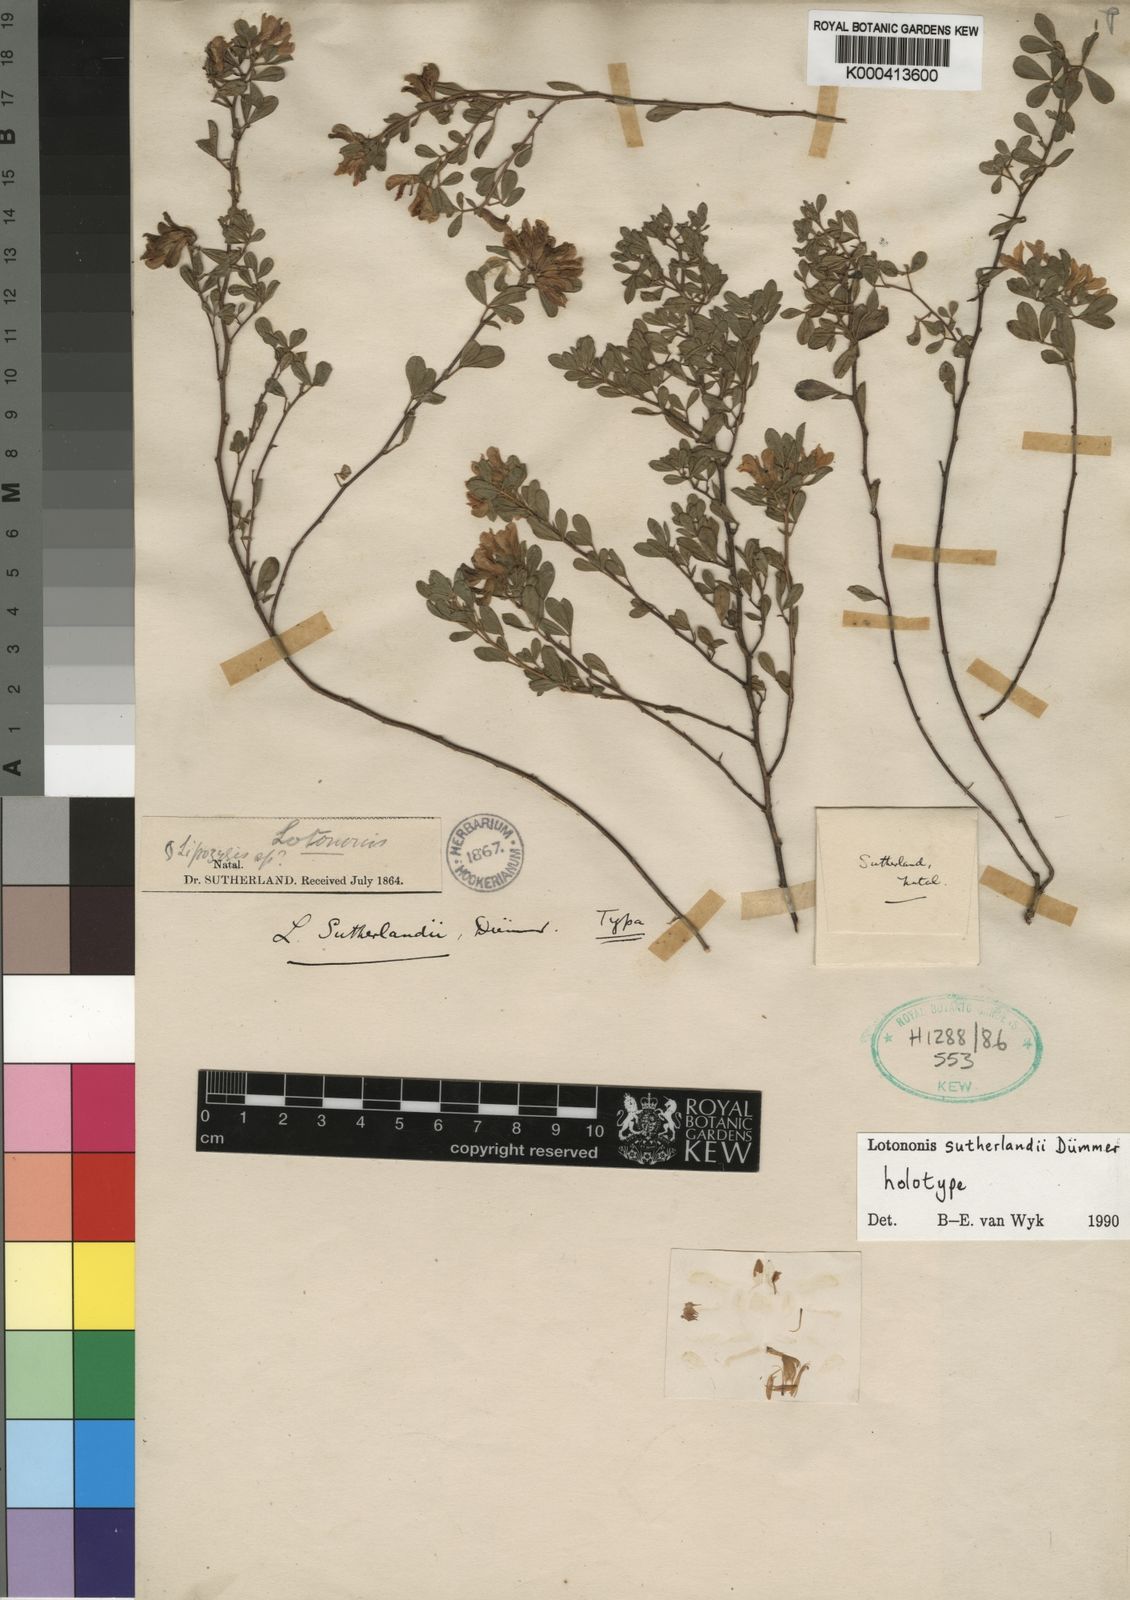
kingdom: Plantae
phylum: Tracheophyta
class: Magnoliopsida
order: Fabales
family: Fabaceae
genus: Leobordea
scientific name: Leobordea sutherlandii
